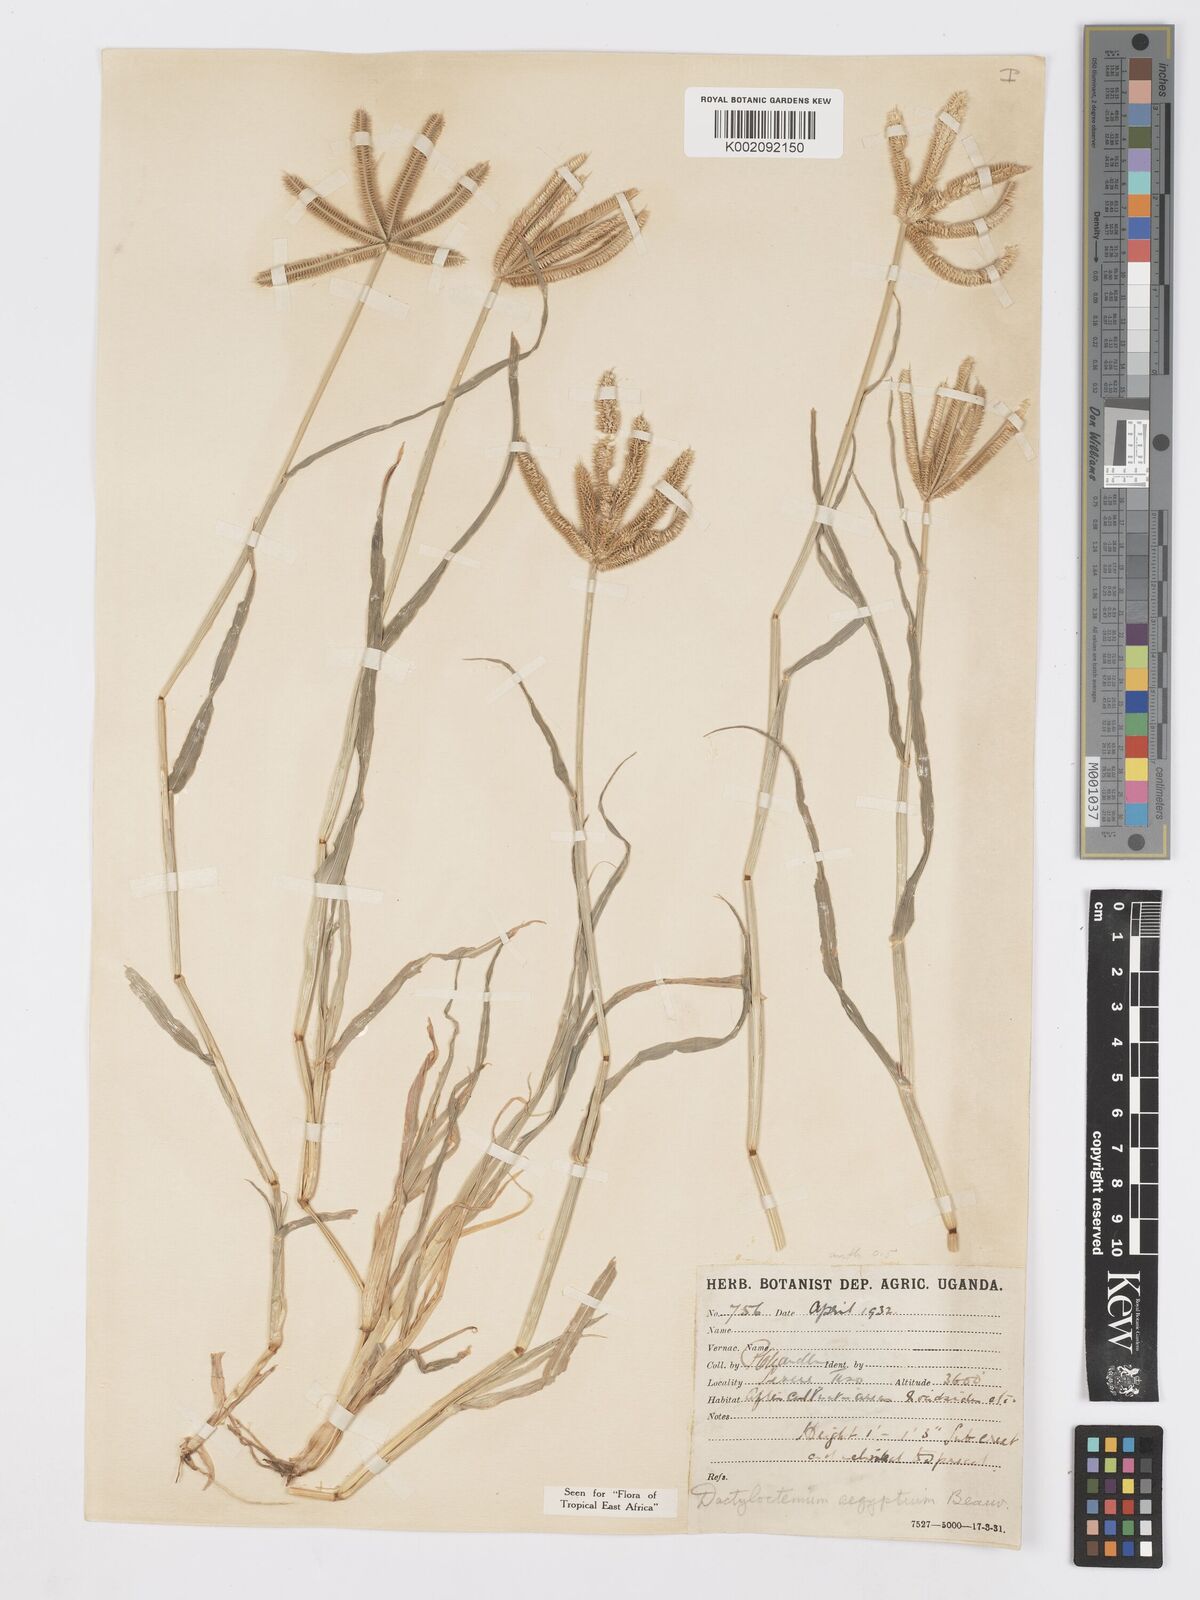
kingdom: Plantae
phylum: Tracheophyta
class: Liliopsida
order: Poales
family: Poaceae
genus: Dactyloctenium
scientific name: Dactyloctenium aegyptium
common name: Egyptian grass
